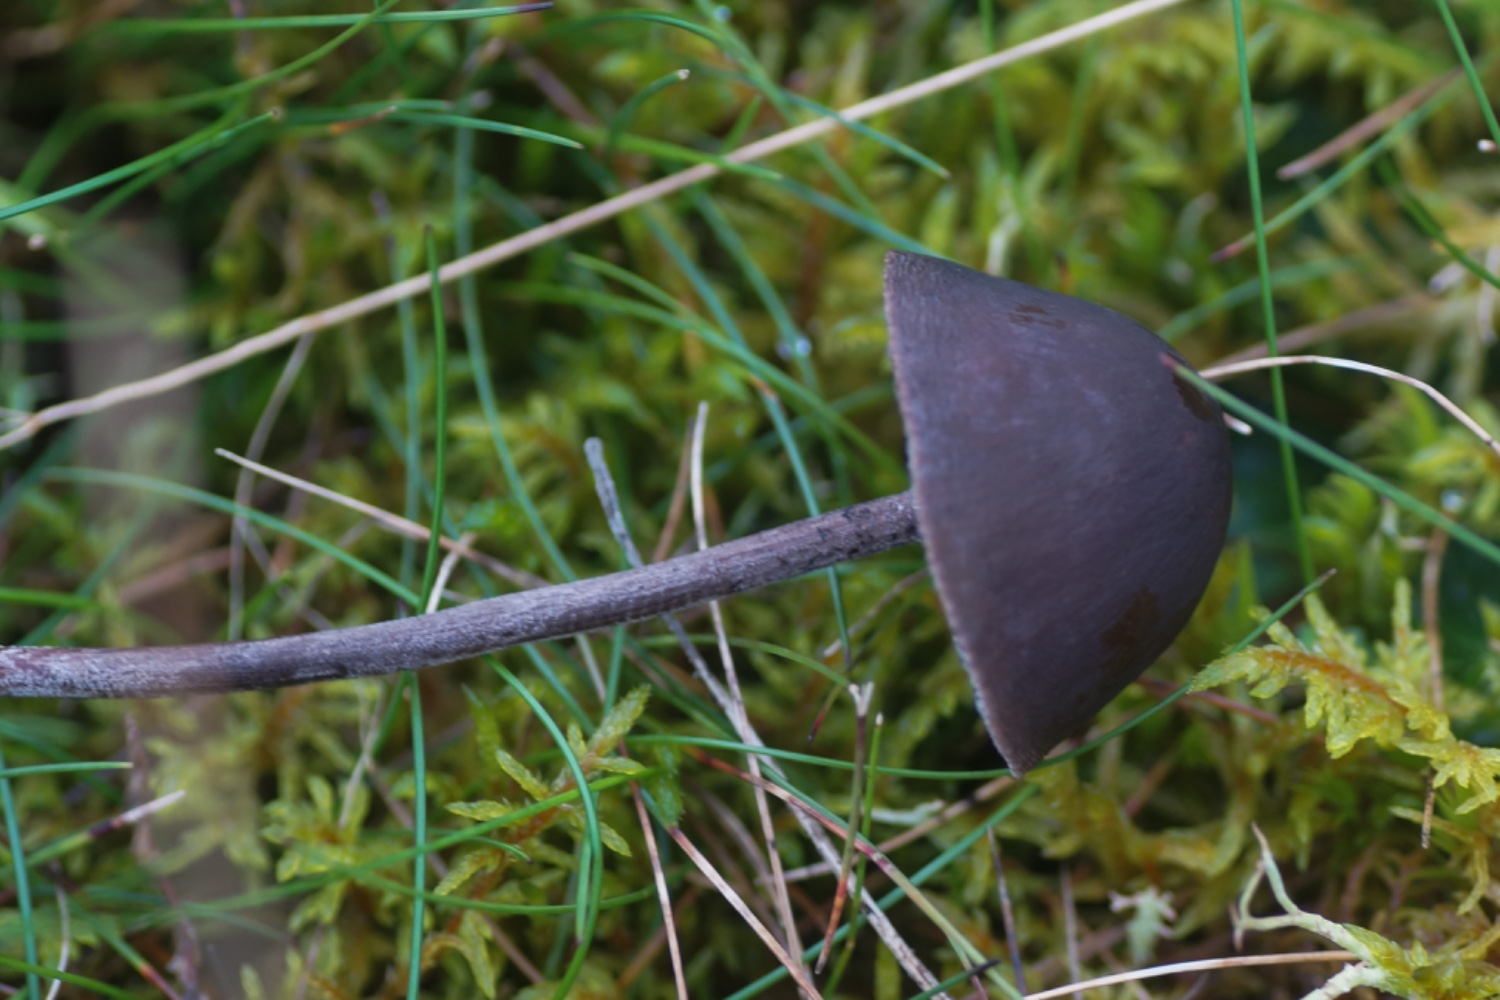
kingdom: Fungi
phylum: Basidiomycota
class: Agaricomycetes
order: Agaricales
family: Bolbitiaceae
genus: Panaeolus
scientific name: Panaeolus acuminatus
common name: høj glanshat
